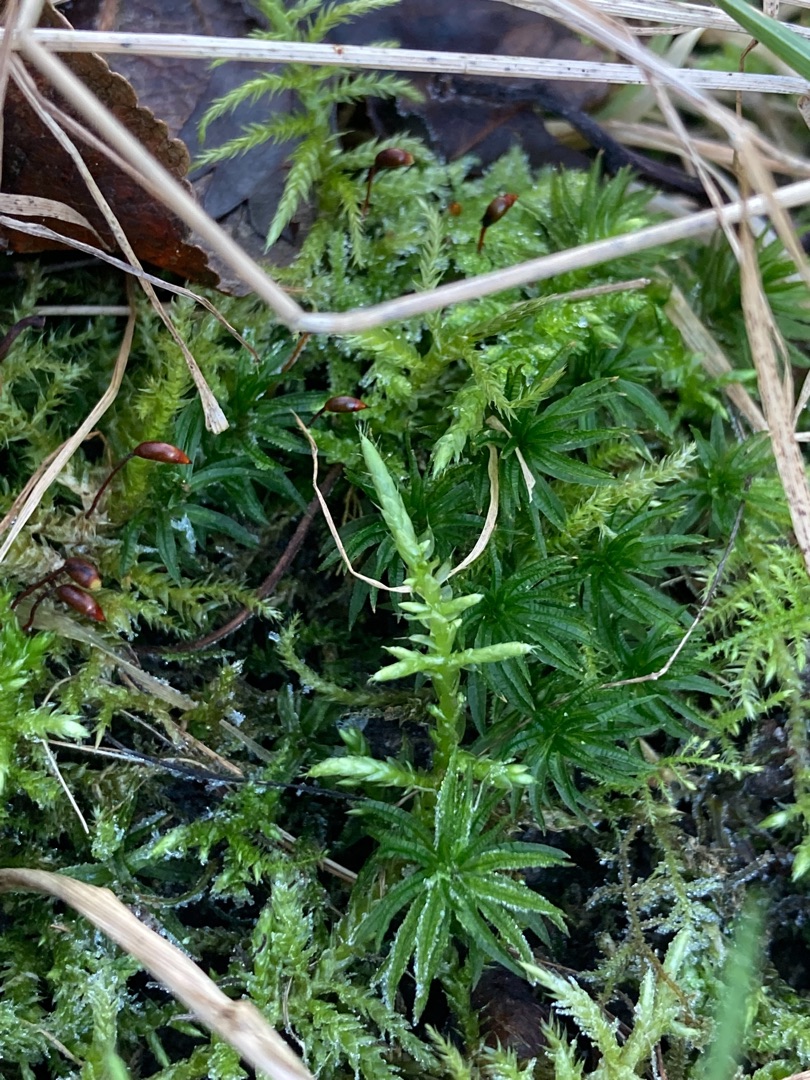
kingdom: Plantae
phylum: Bryophyta
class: Polytrichopsida
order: Polytrichales
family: Polytrichaceae
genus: Atrichum
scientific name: Atrichum undulatum
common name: Bølget katrinemos
